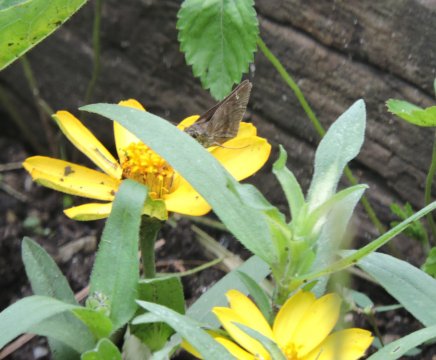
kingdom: Animalia
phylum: Arthropoda
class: Insecta
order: Lepidoptera
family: Hesperiidae
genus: Lerema
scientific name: Lerema accius
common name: Clouded Skipper
